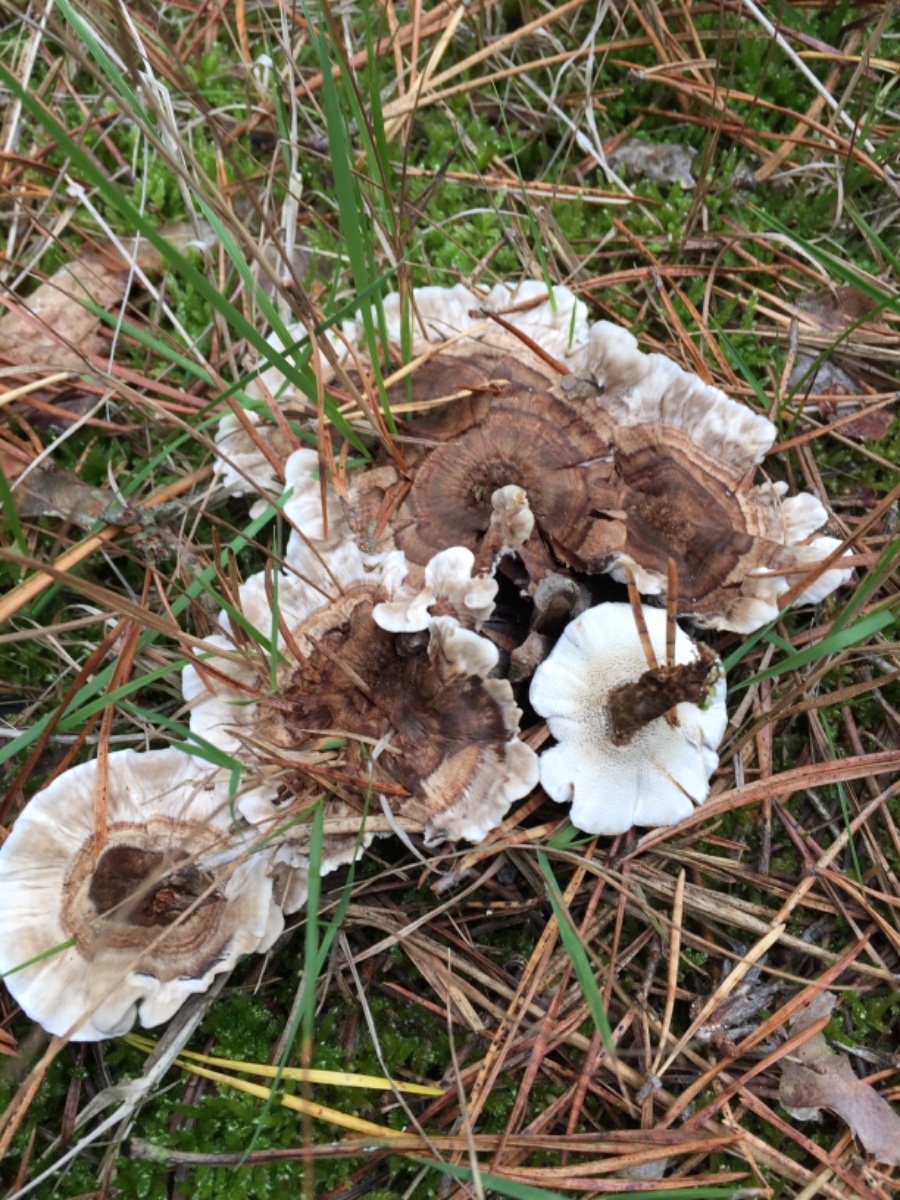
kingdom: Fungi
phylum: Basidiomycota
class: Agaricomycetes
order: Thelephorales
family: Thelephoraceae
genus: Phellodon
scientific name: Phellodon tomentosus
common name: tragtformet duftpigsvamp
